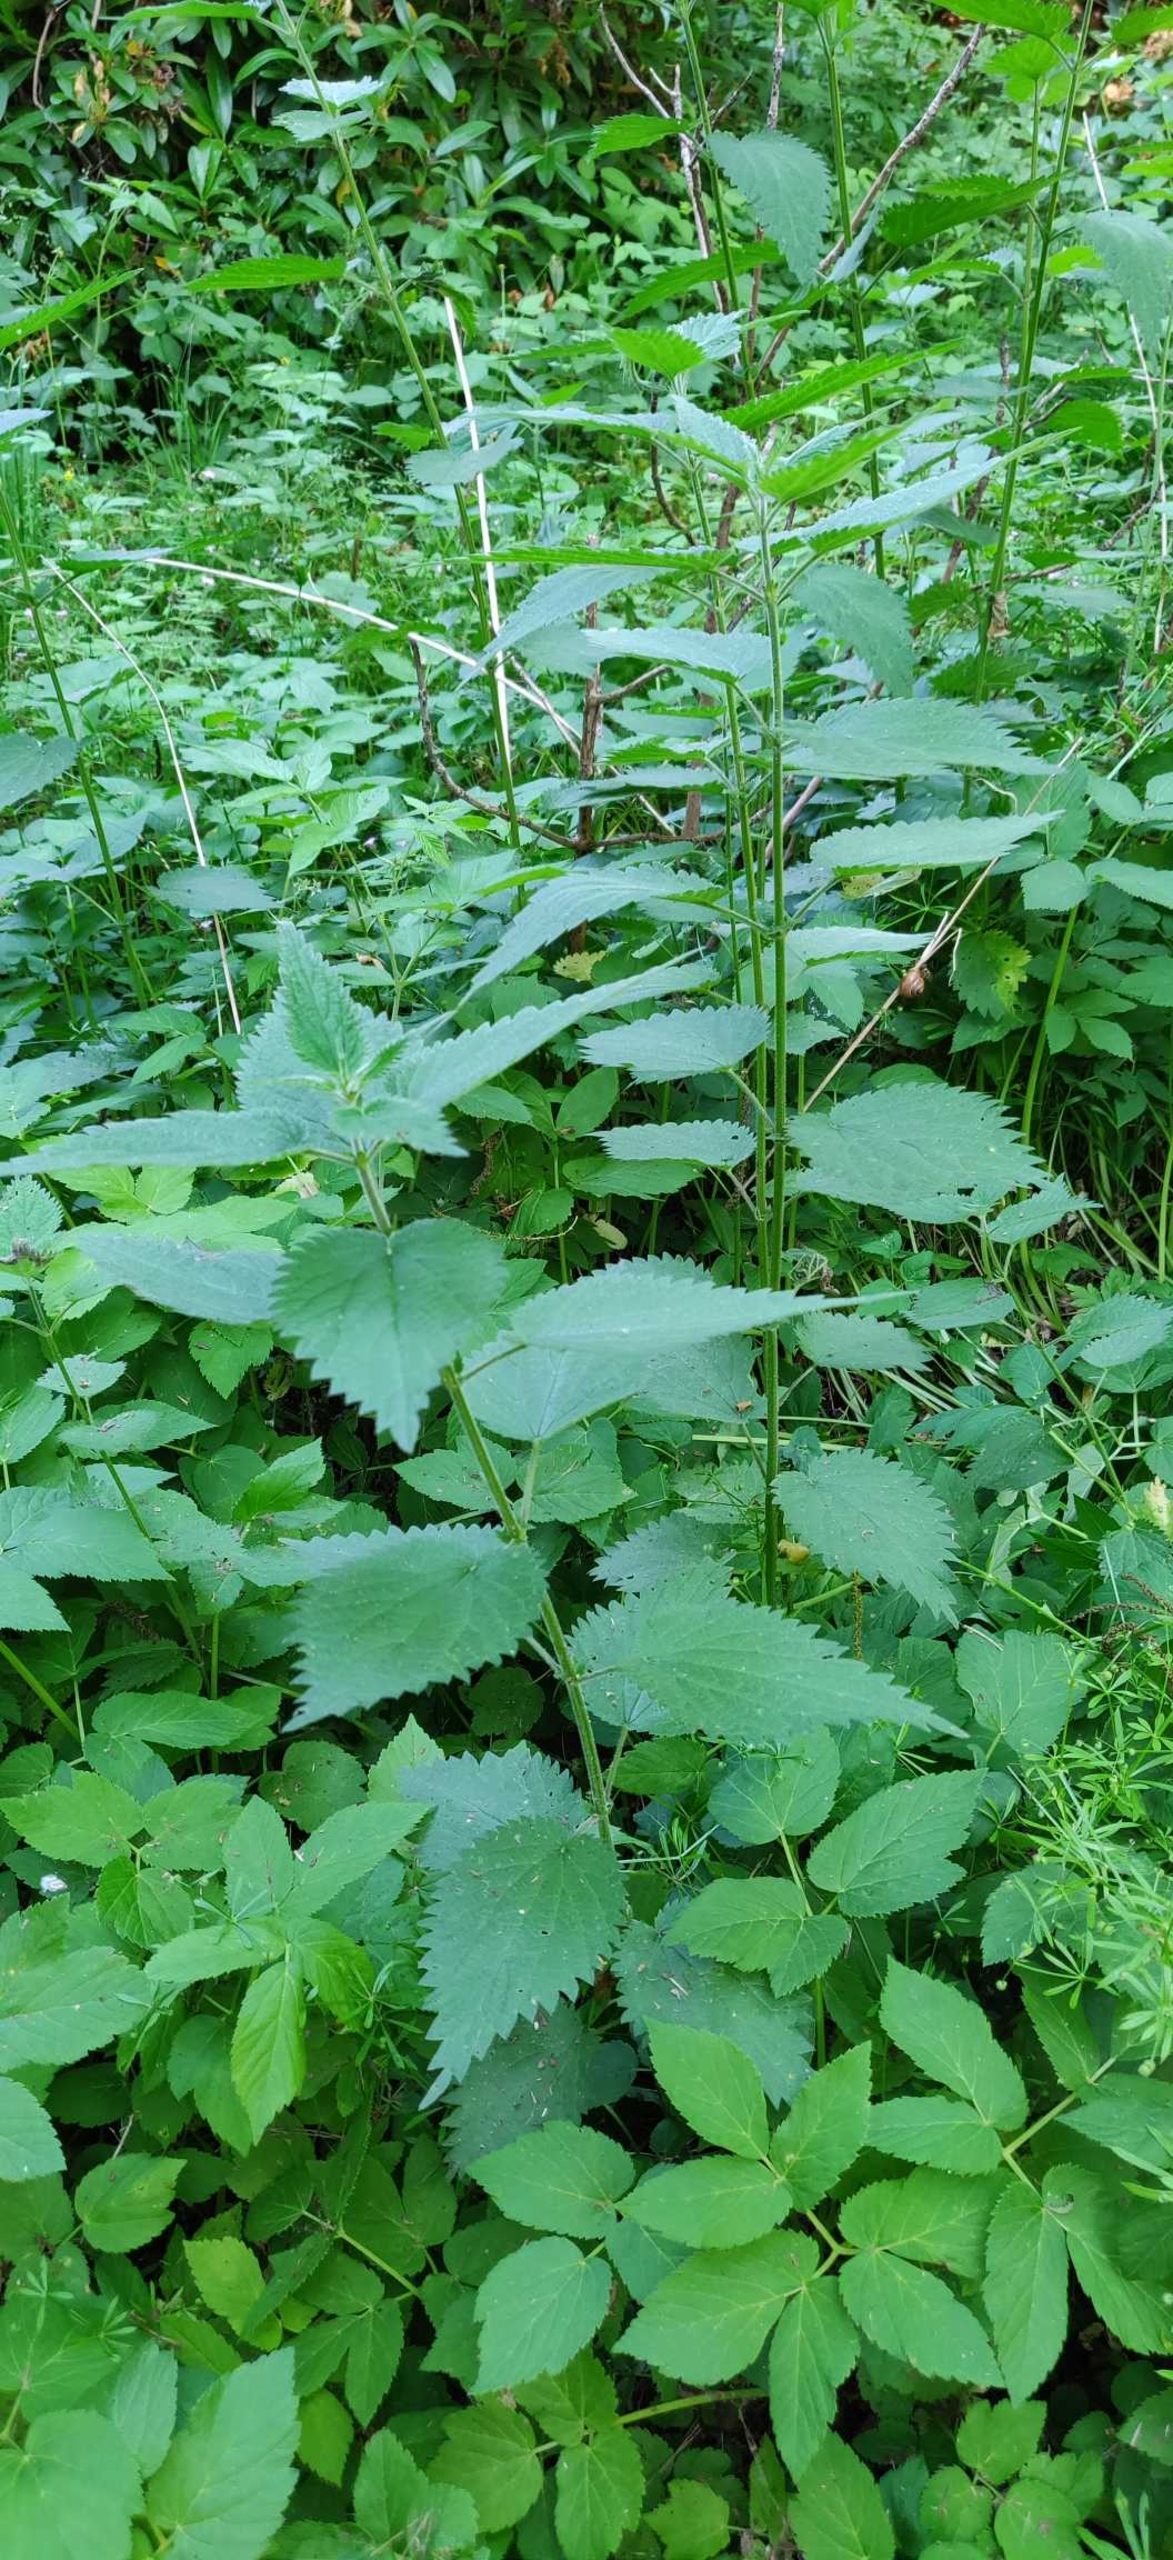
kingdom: Plantae
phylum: Tracheophyta
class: Magnoliopsida
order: Rosales
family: Urticaceae
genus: Urtica
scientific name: Urtica dioica
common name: Stor nælde
